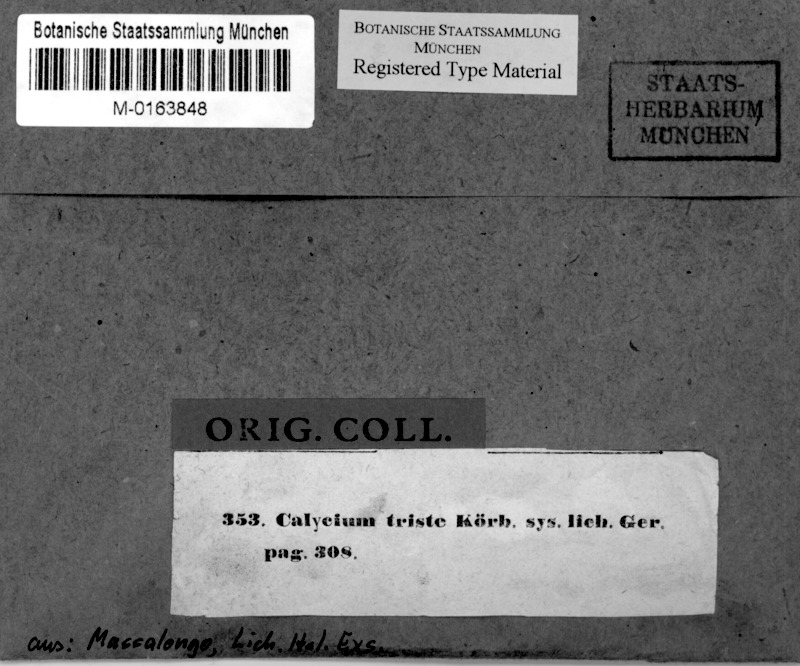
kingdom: Fungi
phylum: Ascomycota
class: Eurotiomycetes
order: Mycocaliciales
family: Mycocaliciaceae
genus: Chaenothecopsis
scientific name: Chaenothecopsis
